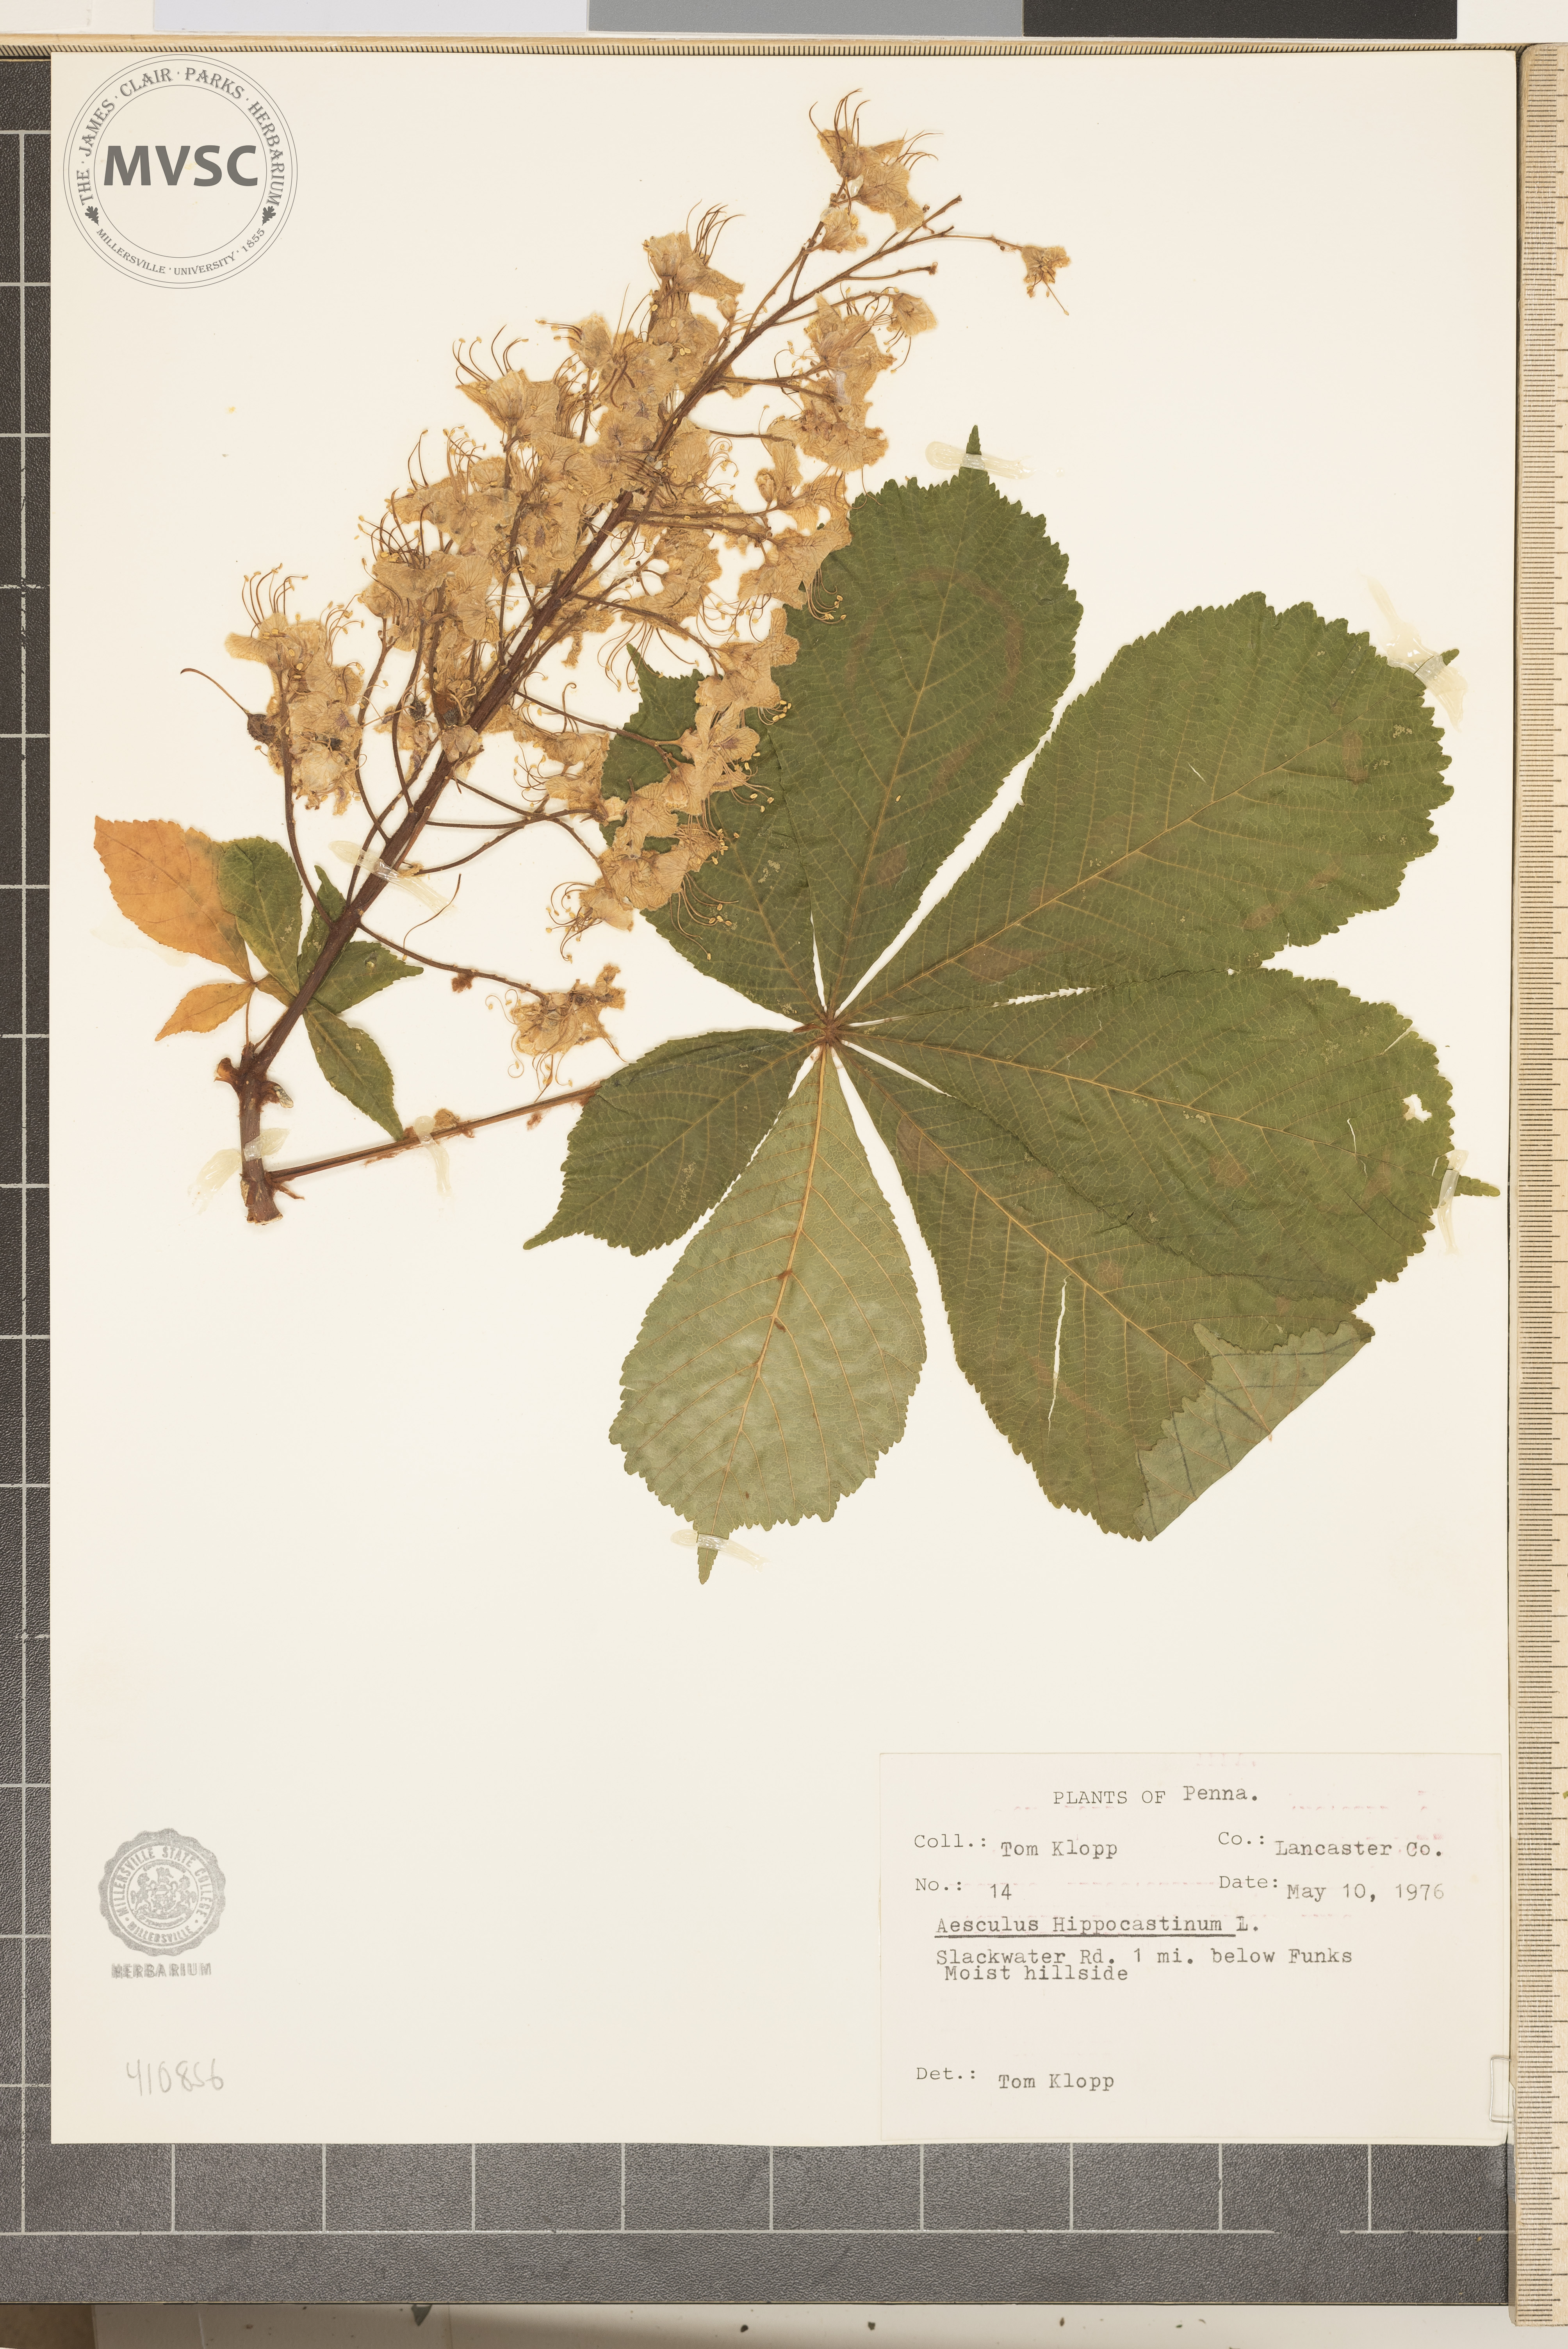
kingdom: Plantae
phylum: Tracheophyta
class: Magnoliopsida
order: Sapindales
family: Sapindaceae
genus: Aesculus
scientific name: Aesculus hippocastanum
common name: Horse-chestnut
